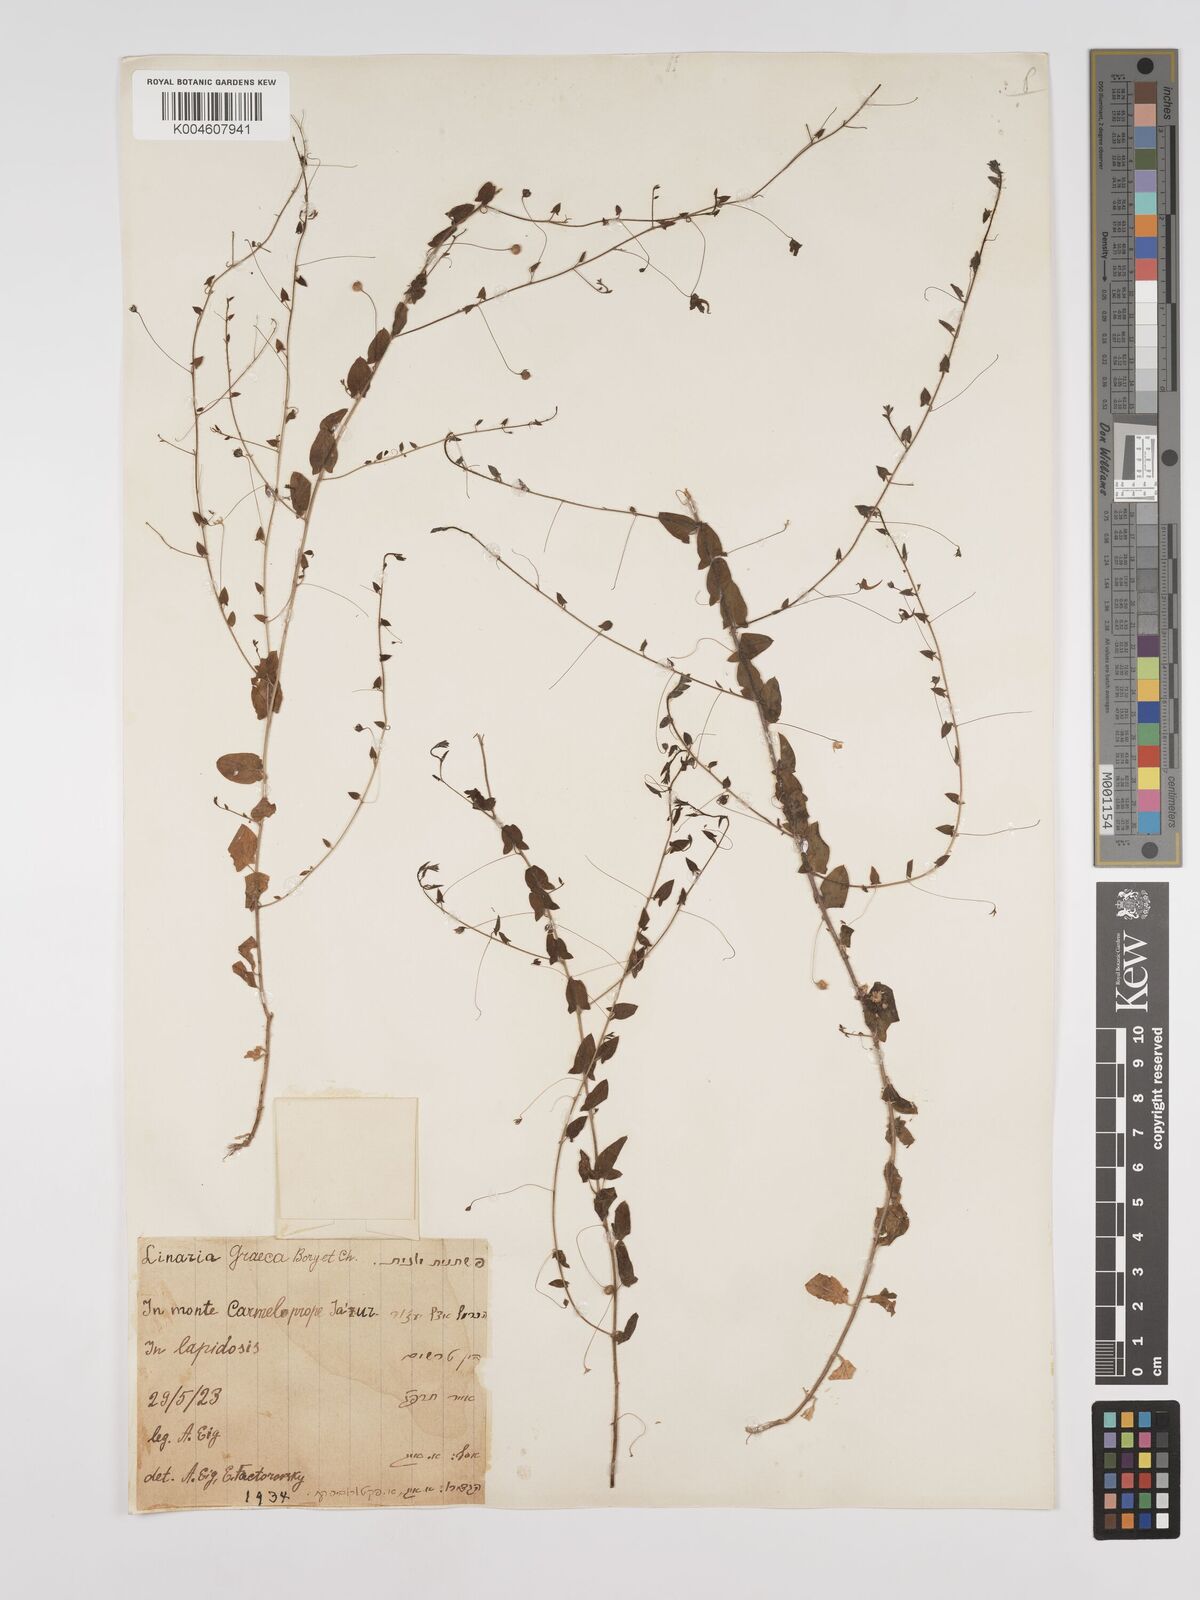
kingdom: Plantae
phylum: Tracheophyta
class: Magnoliopsida
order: Lamiales
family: Plantaginaceae
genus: Kickxia
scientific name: Kickxia commutata
